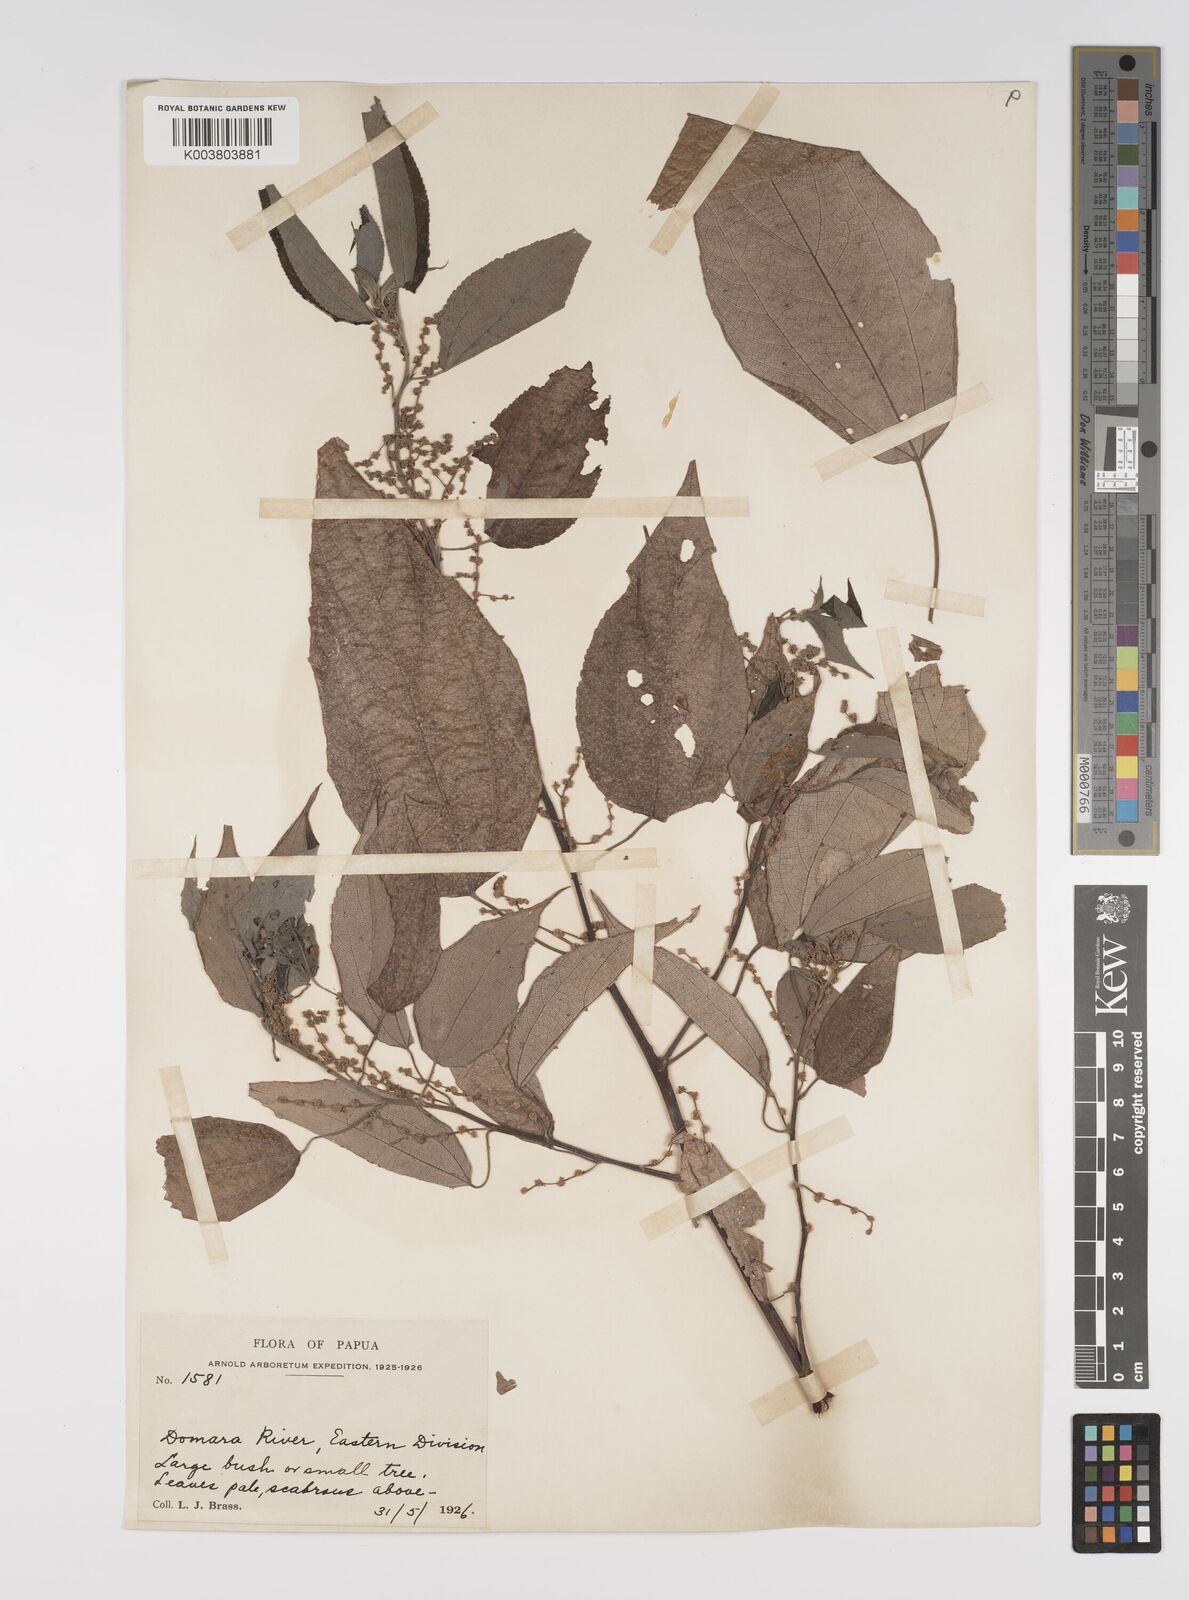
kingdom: Plantae
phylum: Tracheophyta
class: Magnoliopsida
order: Rosales
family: Urticaceae
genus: Pipturus
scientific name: Pipturus argenteus
